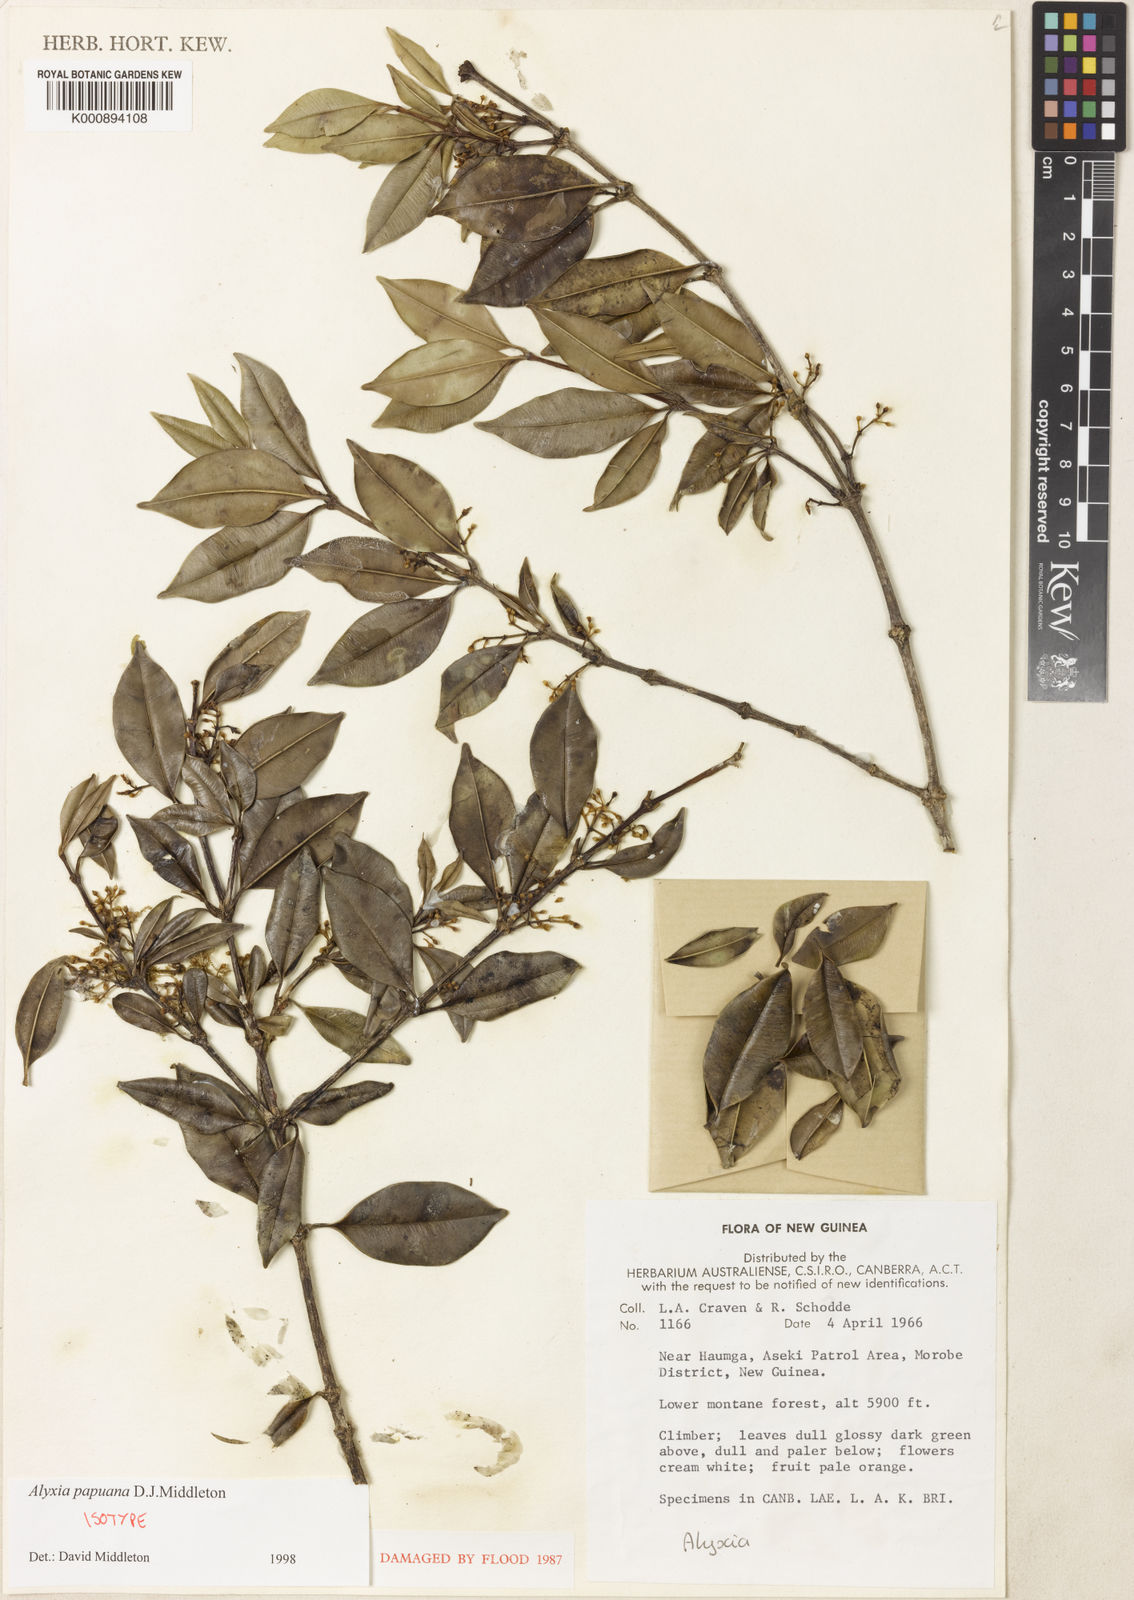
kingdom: Plantae
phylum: Tracheophyta
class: Magnoliopsida
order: Gentianales
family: Apocynaceae
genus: Alyxia
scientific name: Alyxia papuana
